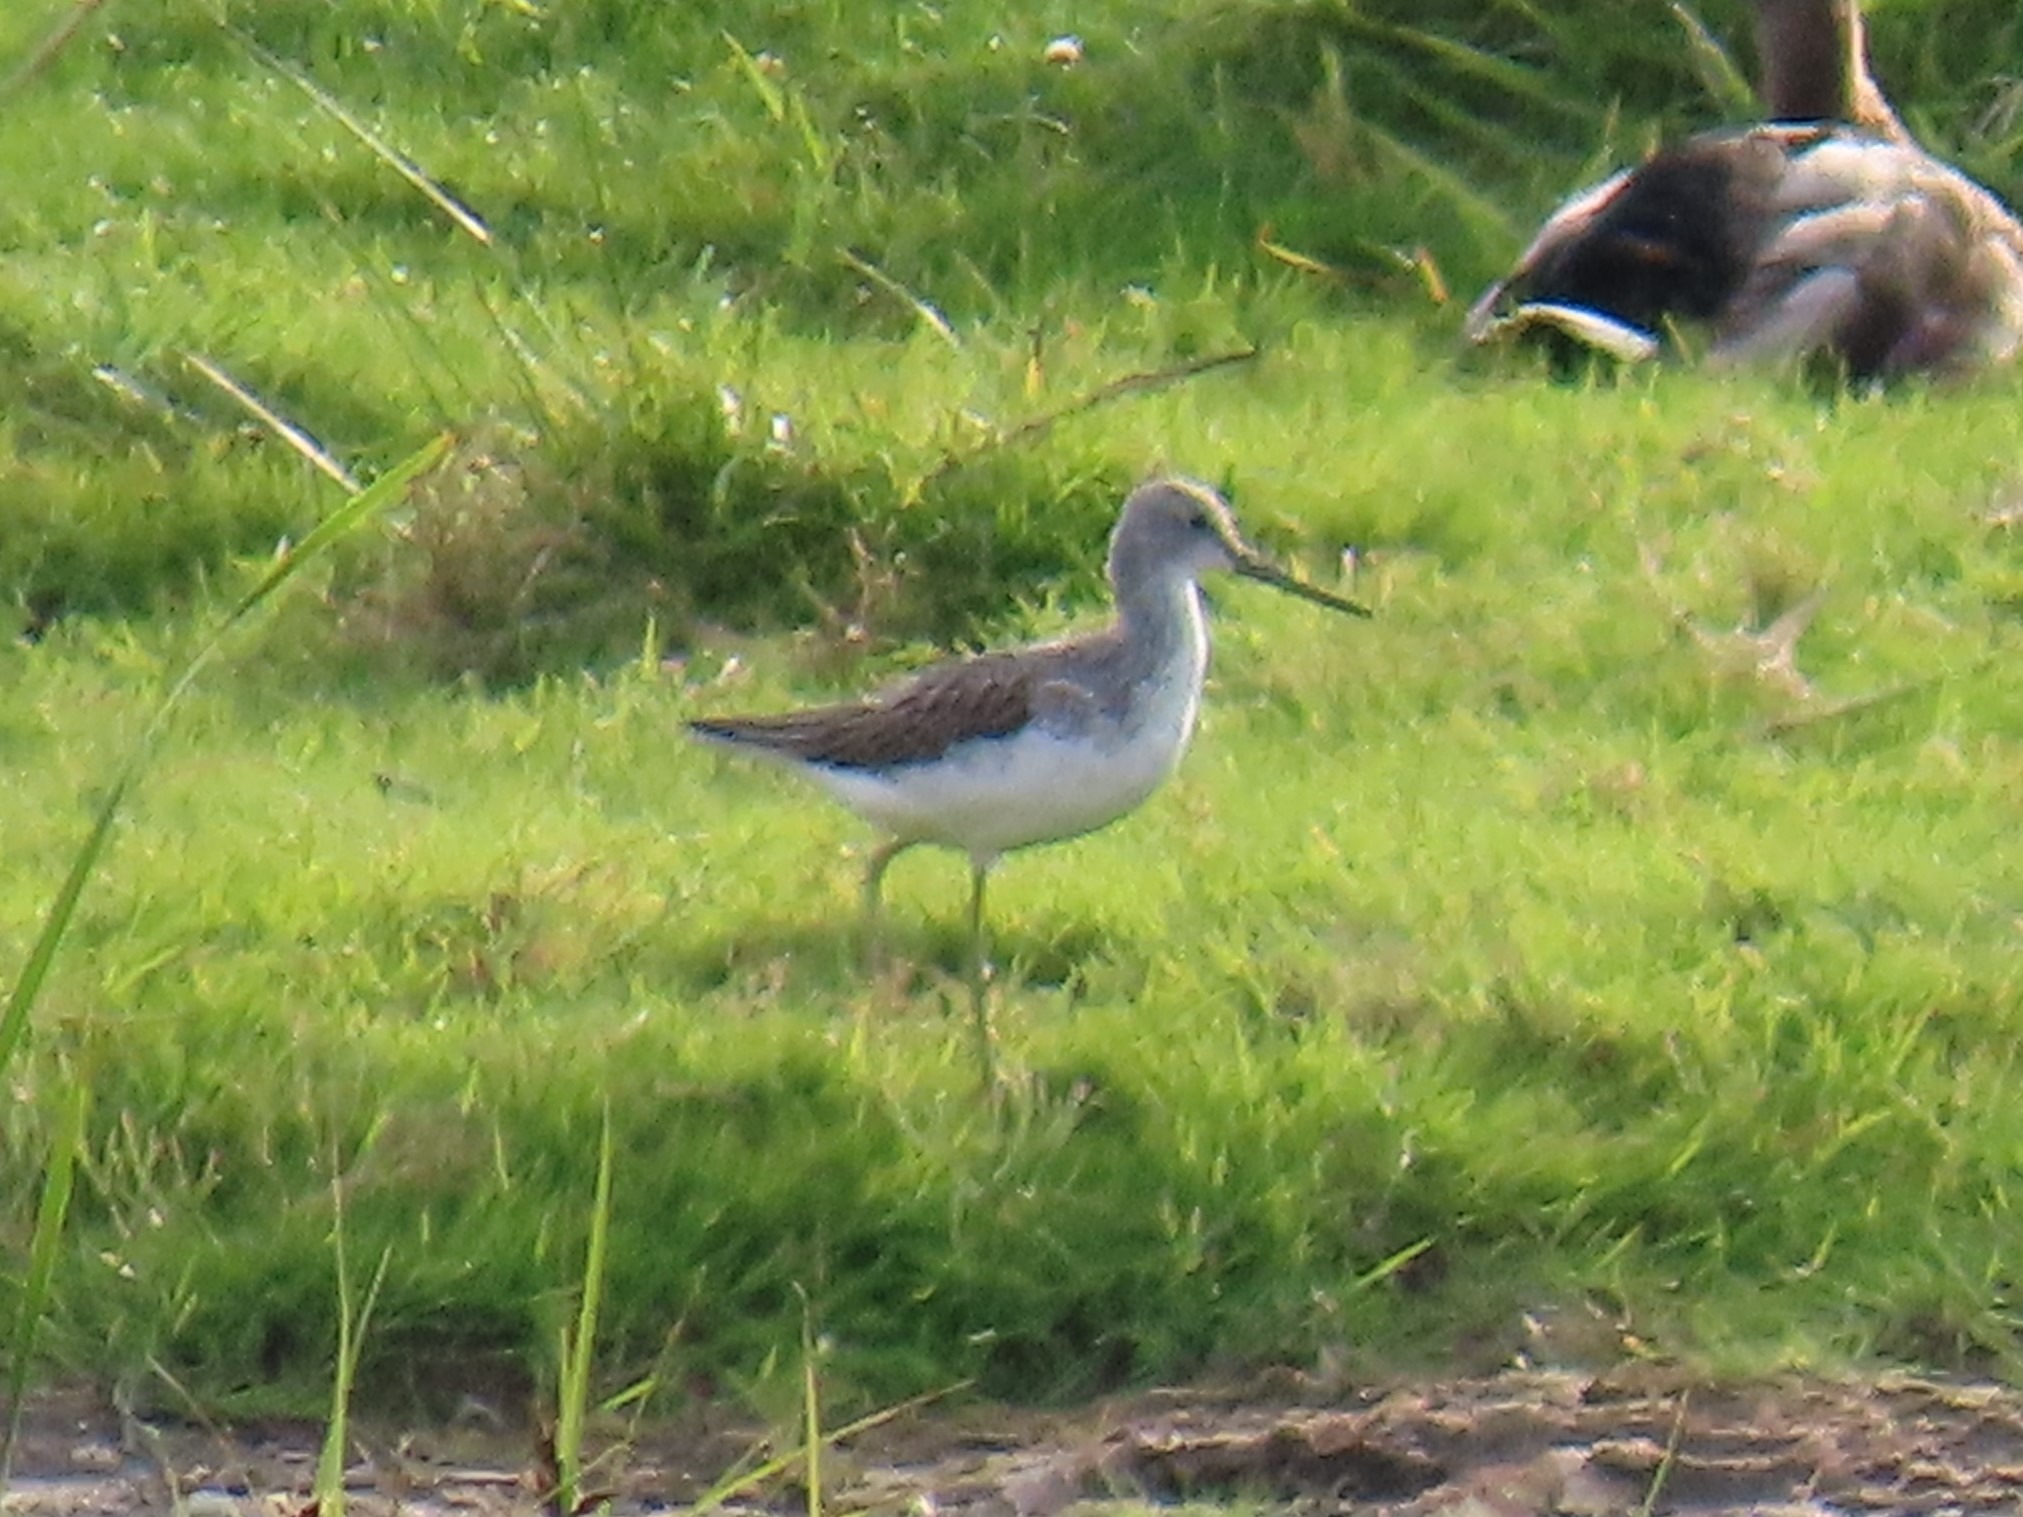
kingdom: Animalia
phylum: Chordata
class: Aves
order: Charadriiformes
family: Scolopacidae
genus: Tringa
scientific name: Tringa nebularia
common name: Hvidklire
